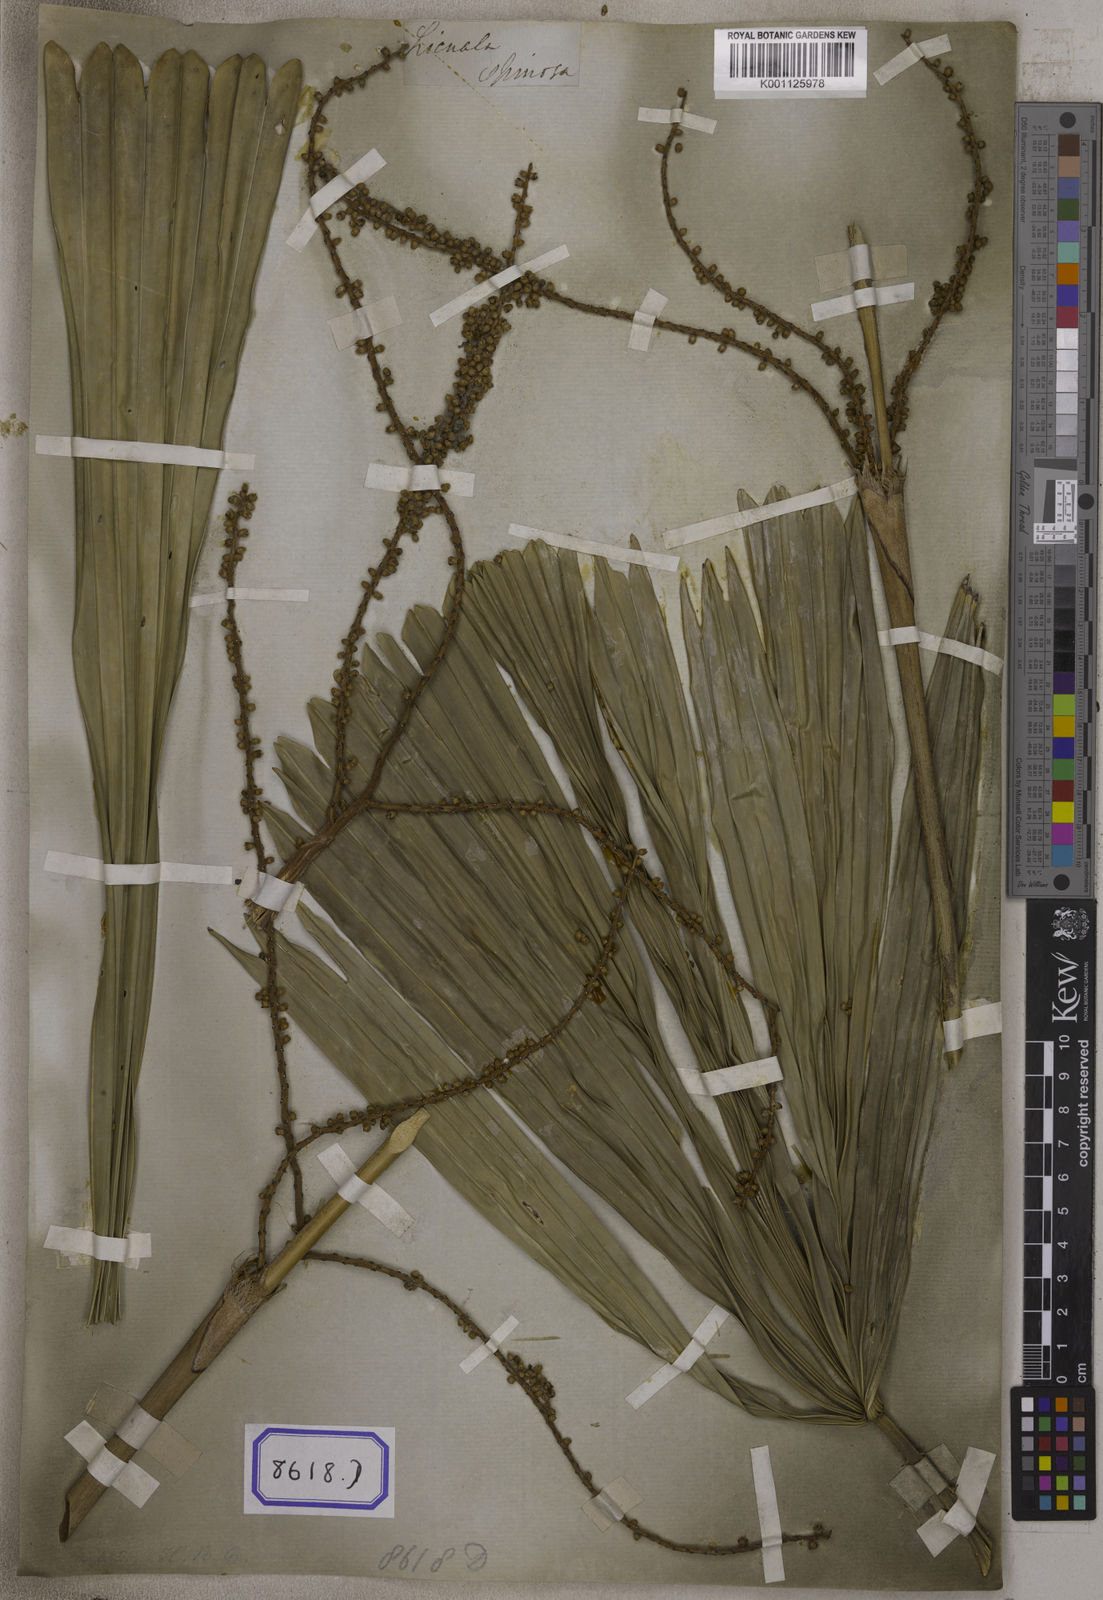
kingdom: Plantae
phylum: Tracheophyta
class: Liliopsida
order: Arecales
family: Arecaceae
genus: Licuala
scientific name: Licuala acutifida
